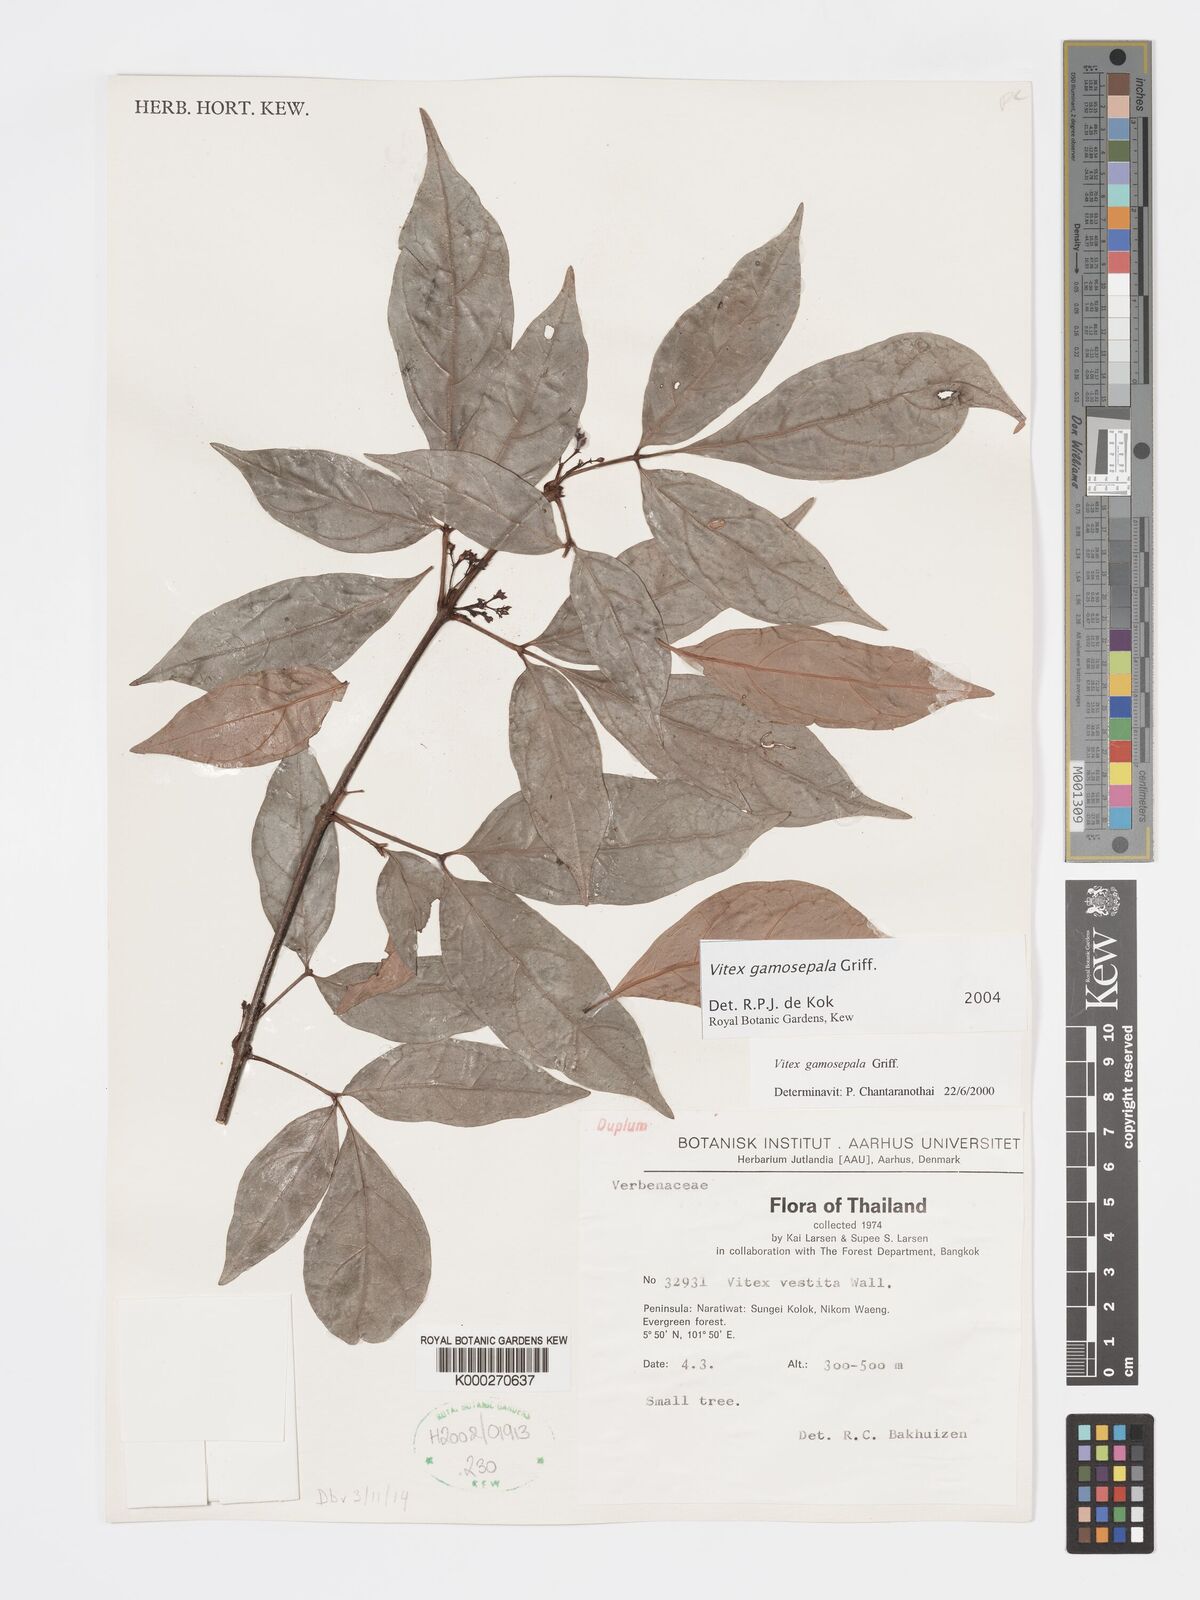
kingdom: Plantae
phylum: Tracheophyta
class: Magnoliopsida
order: Lamiales
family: Lamiaceae
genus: Vitex
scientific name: Vitex gamosepala
